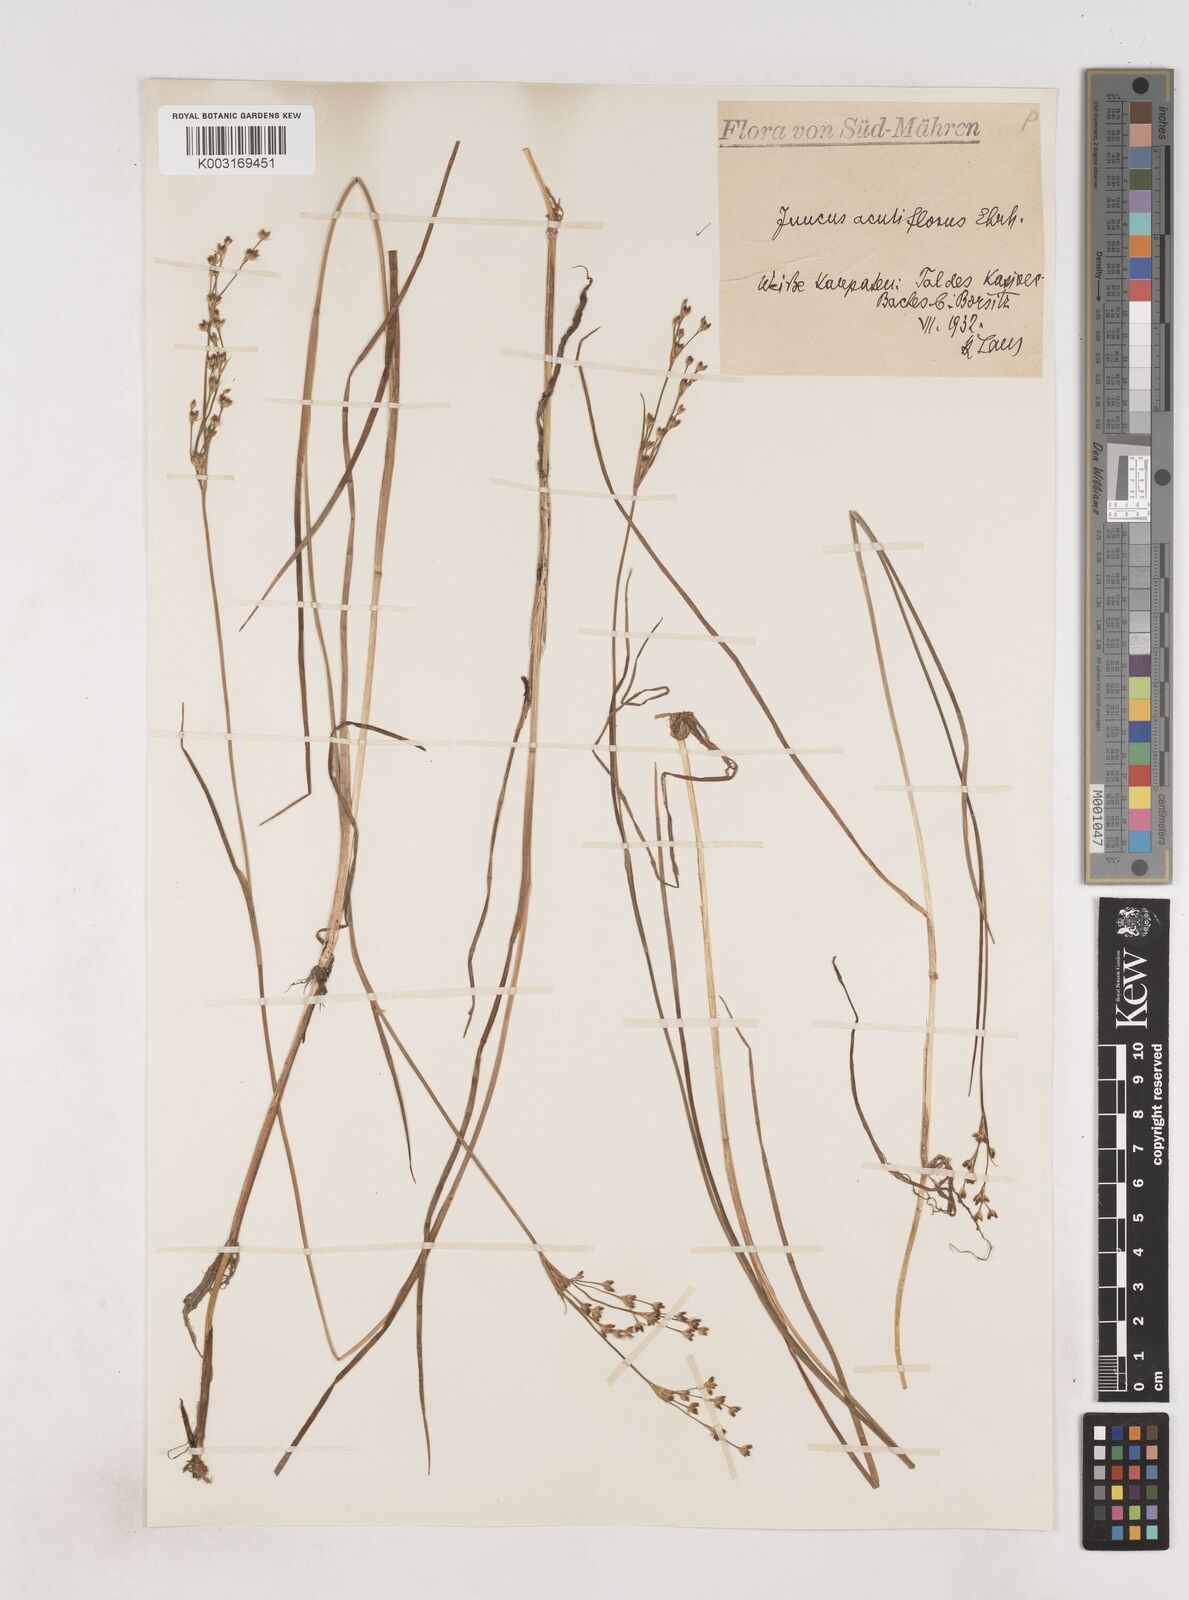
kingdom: Plantae
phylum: Tracheophyta
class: Liliopsida
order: Poales
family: Juncaceae
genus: Juncus
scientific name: Juncus acutiflorus
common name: Sharp-flowered rush
